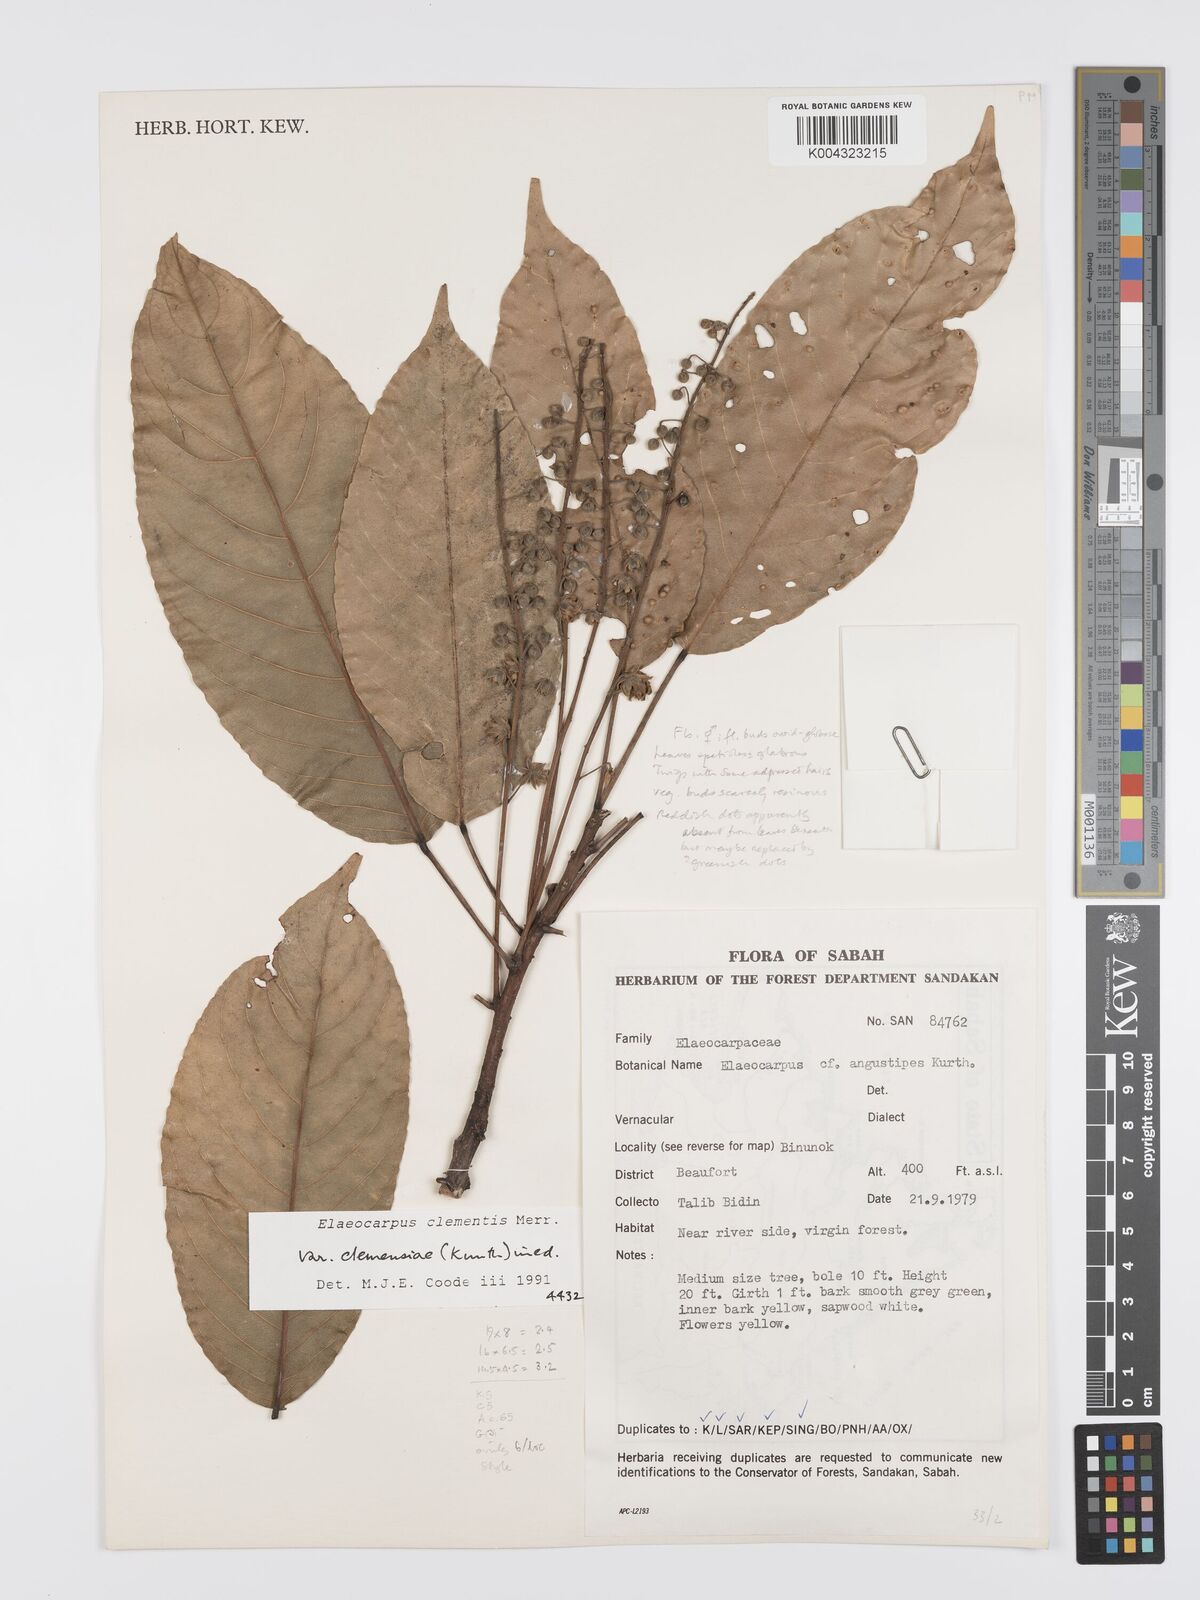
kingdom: Plantae
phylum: Tracheophyta
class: Magnoliopsida
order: Oxalidales
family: Elaeocarpaceae
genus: Elaeocarpus
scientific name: Elaeocarpus clementis
